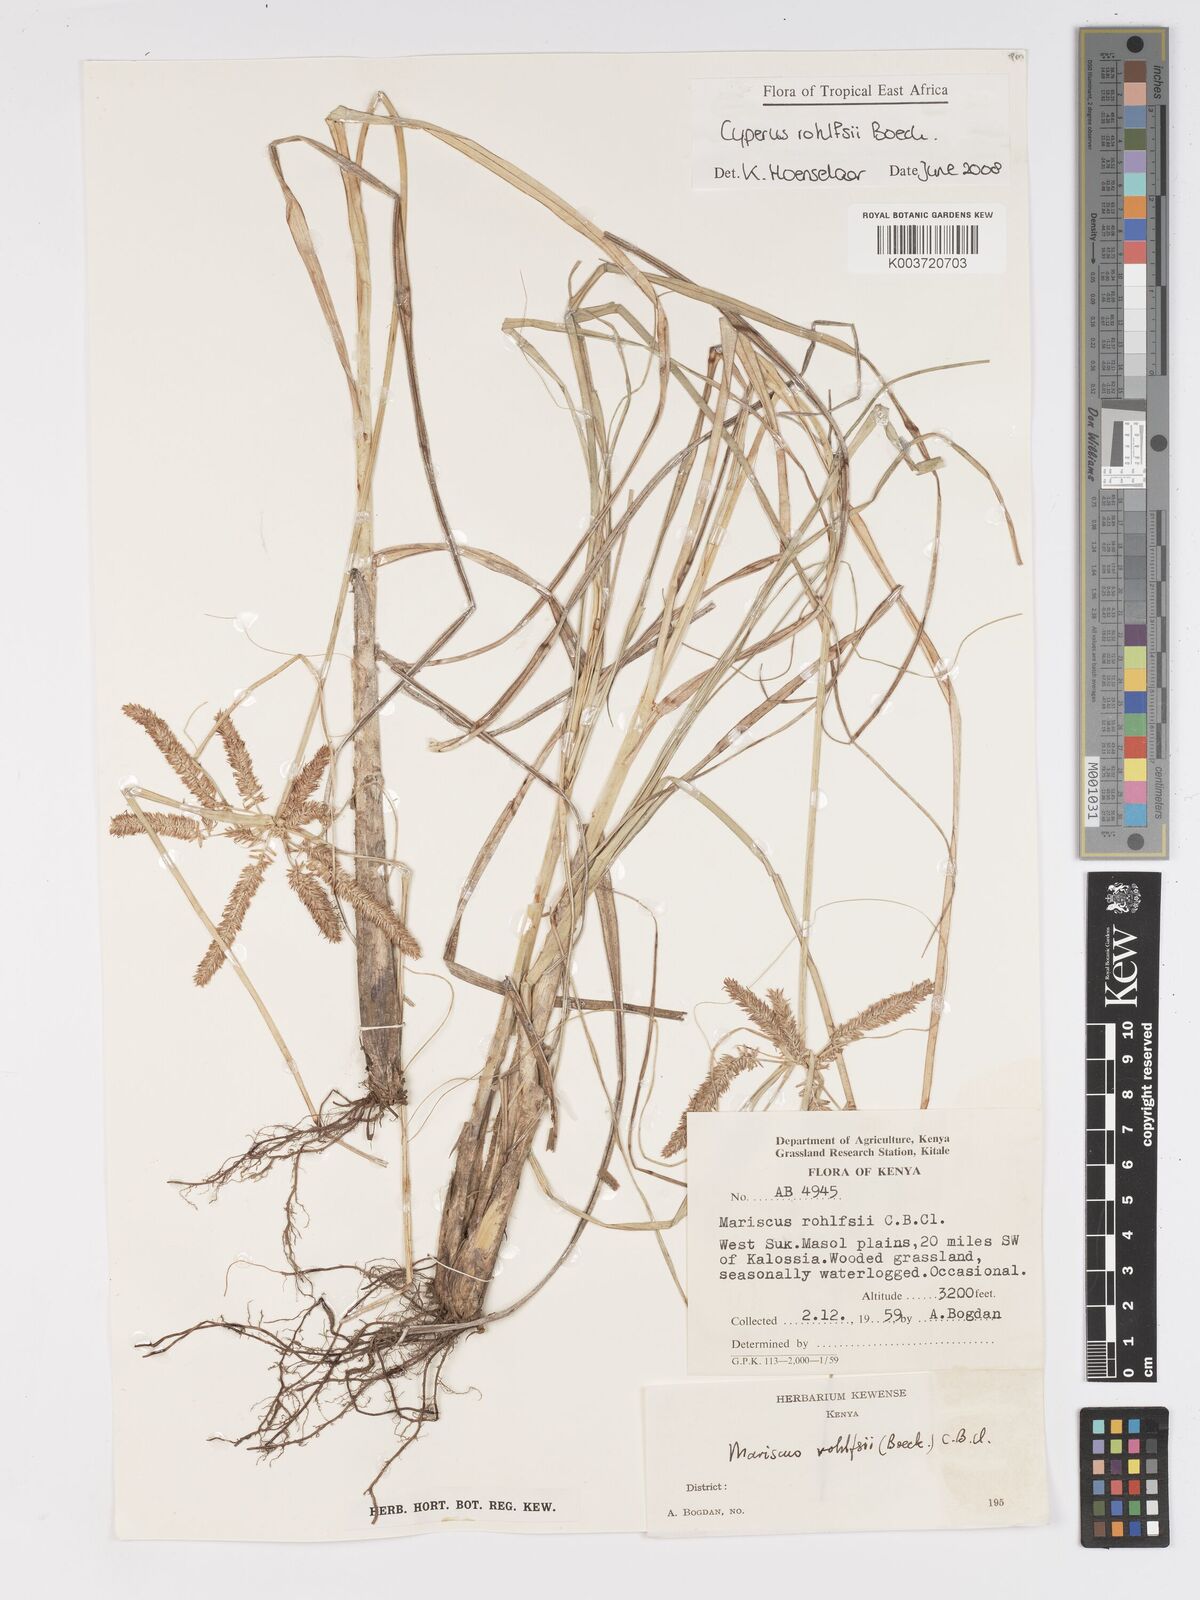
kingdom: Plantae
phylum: Tracheophyta
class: Liliopsida
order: Poales
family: Cyperaceae
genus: Cyperus
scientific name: Cyperus rohlfsii
